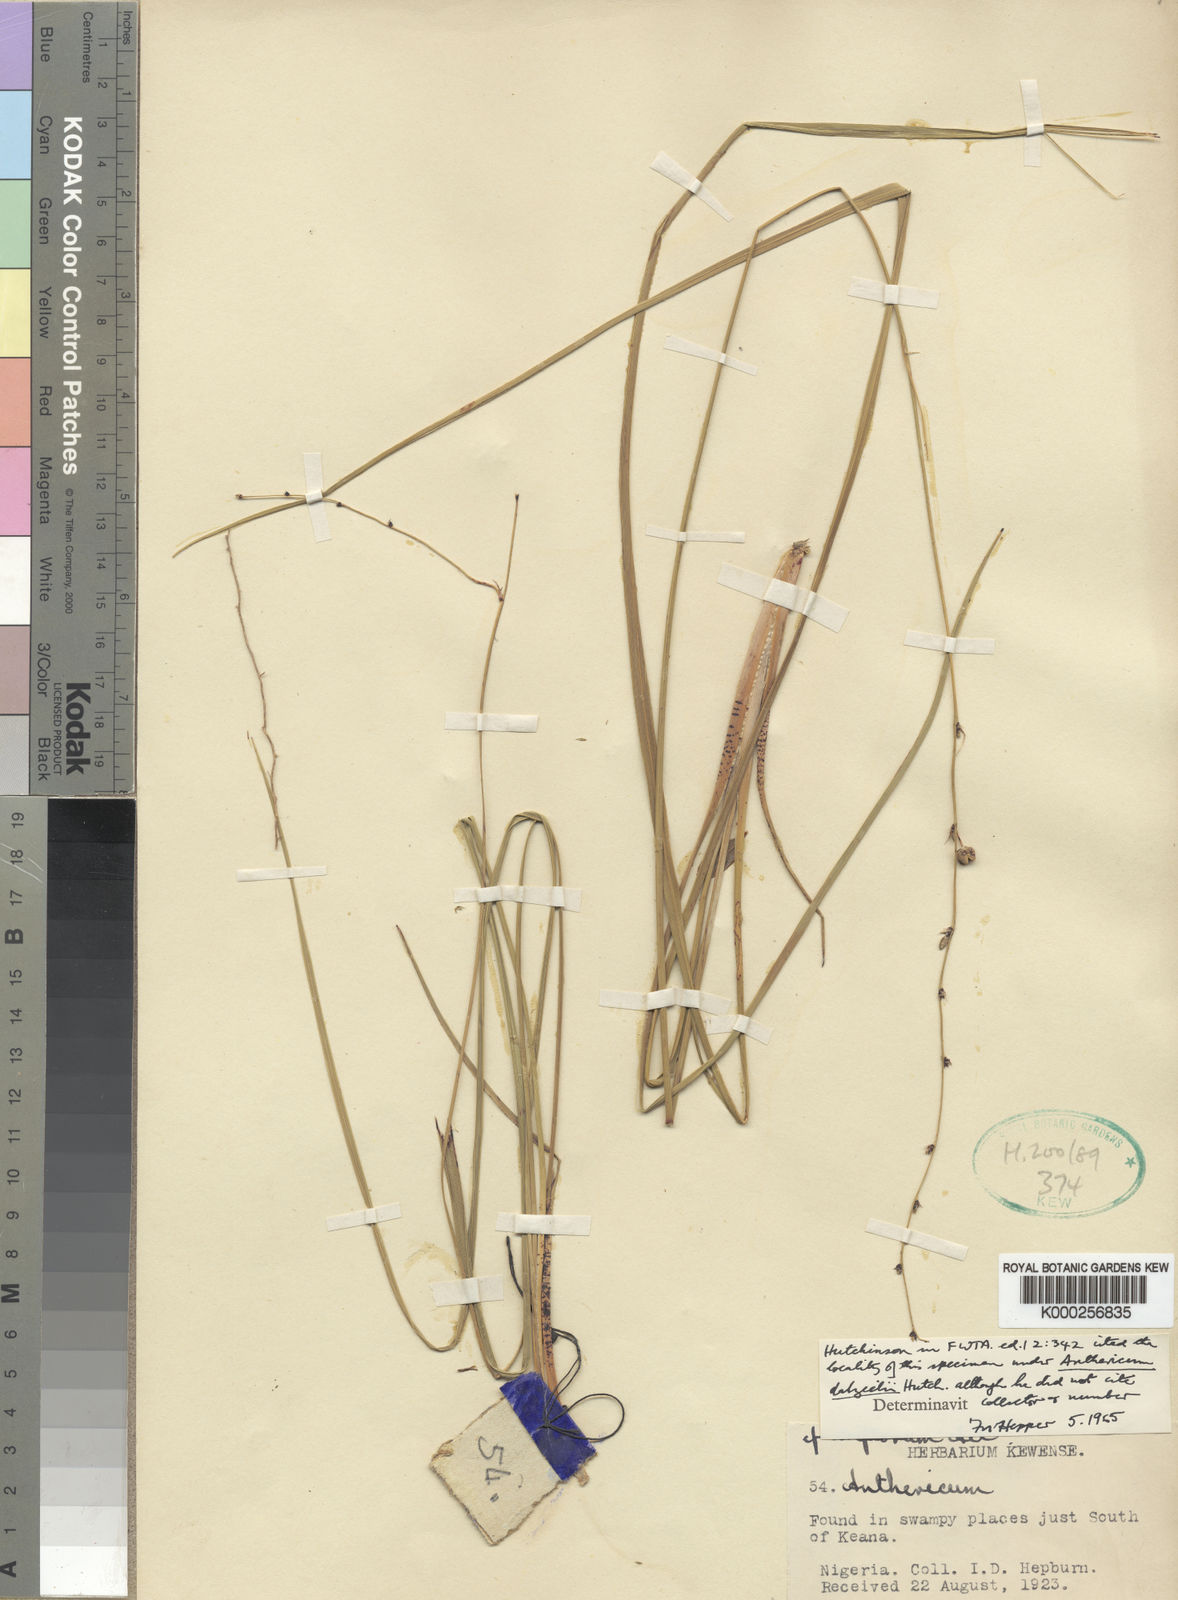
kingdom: Plantae
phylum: Tracheophyta
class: Liliopsida
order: Asparagales
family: Asparagaceae
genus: Chlorophytum
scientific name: Chlorophytum dalzielii
